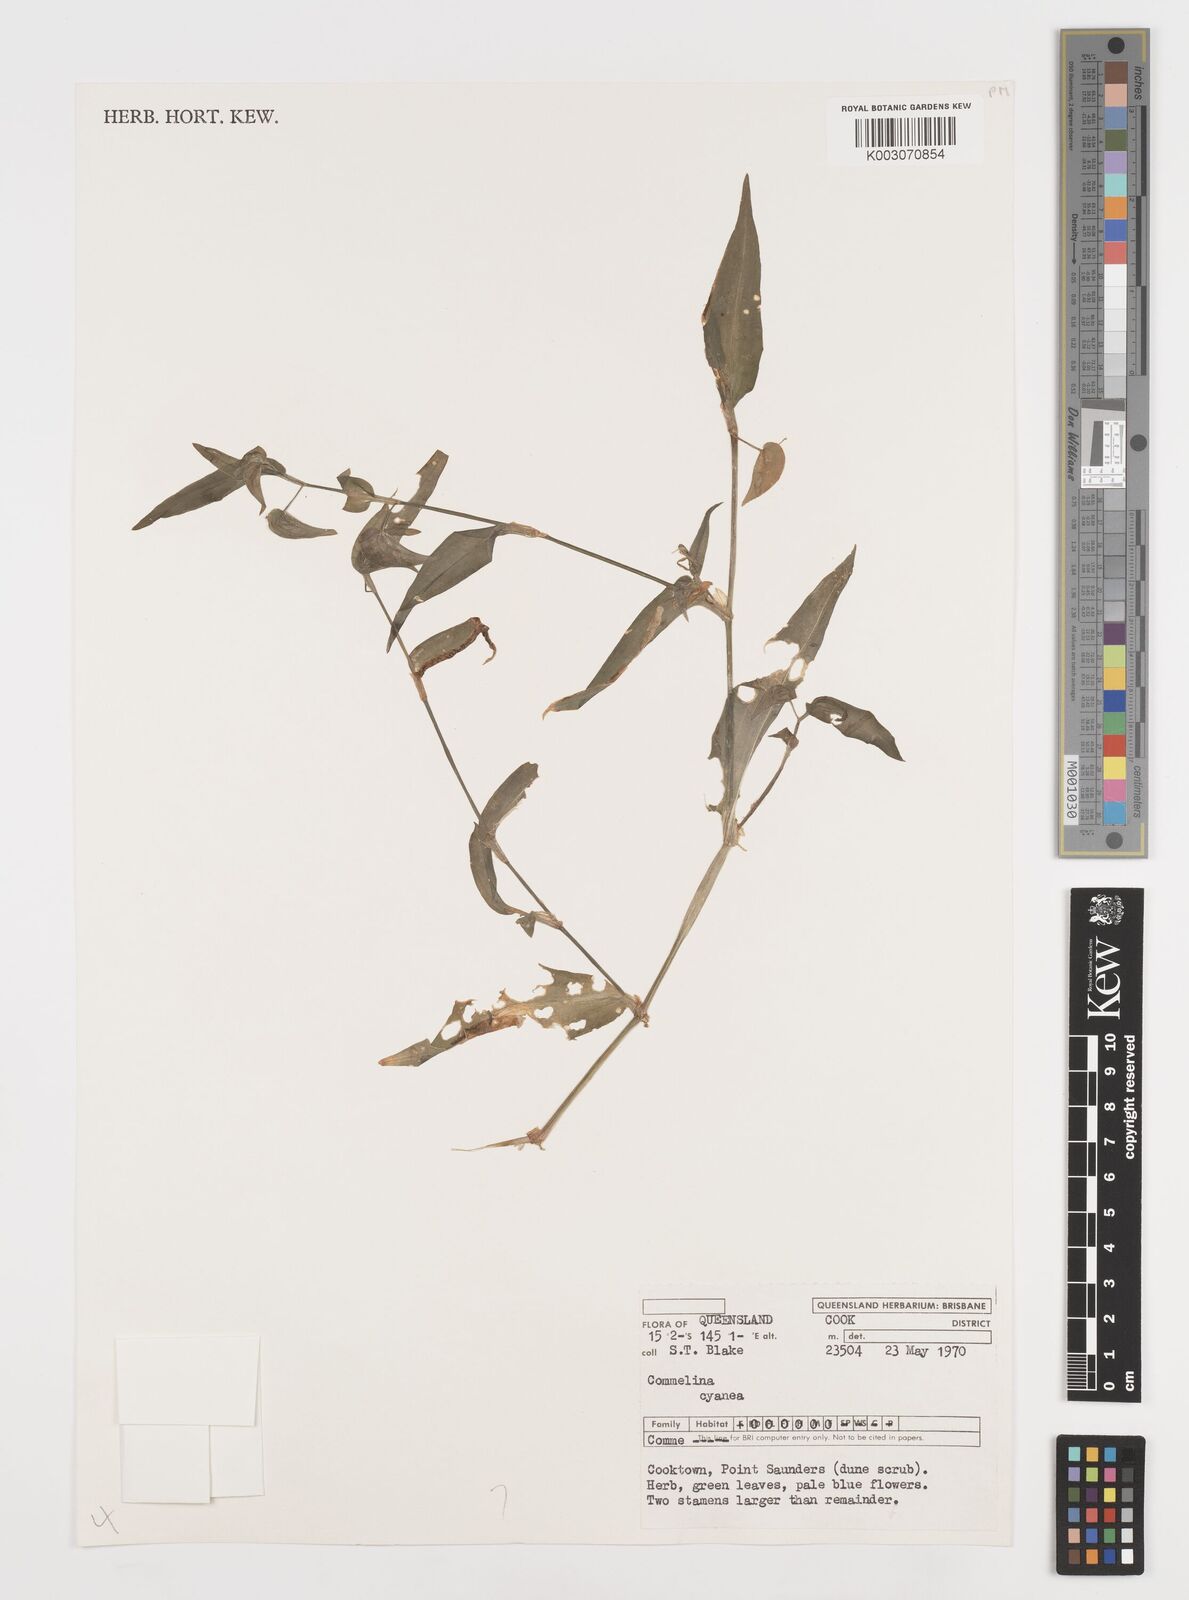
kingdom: Plantae
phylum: Tracheophyta
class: Liliopsida
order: Commelinales
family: Commelinaceae
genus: Commelina
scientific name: Commelina cyanea
